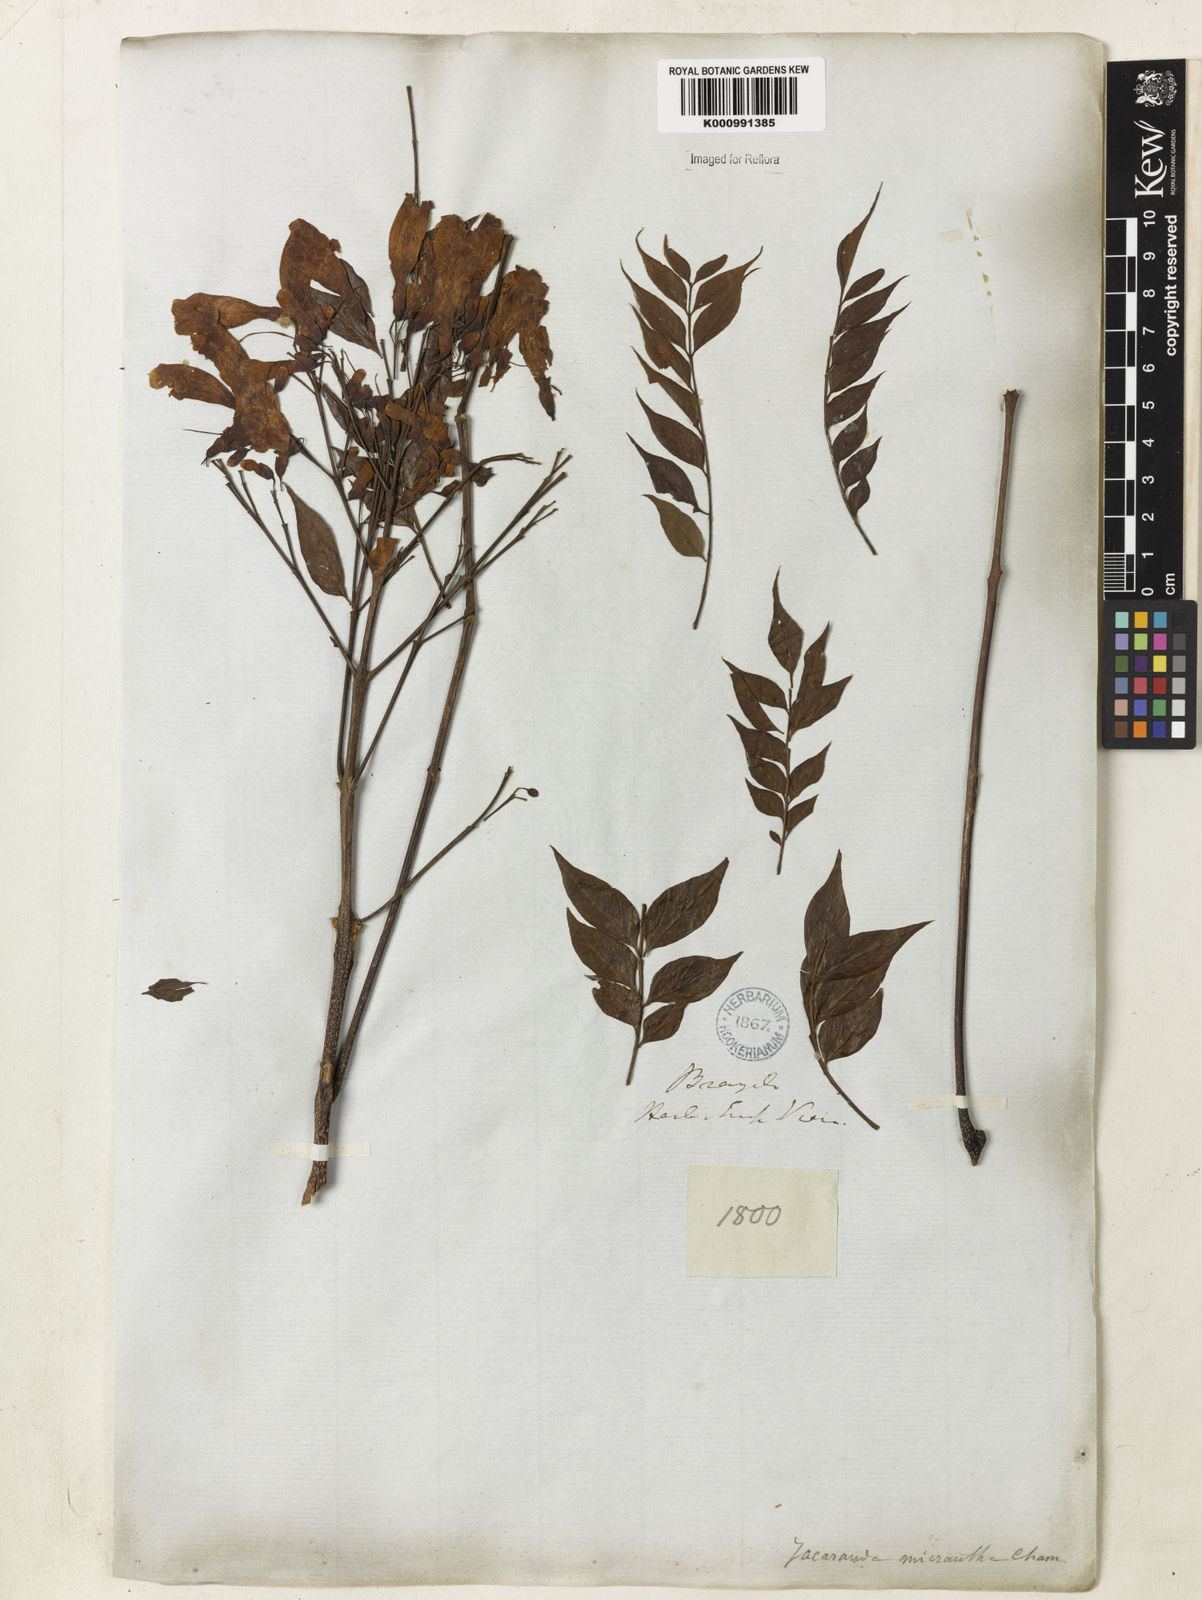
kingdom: Plantae
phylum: Tracheophyta
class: Magnoliopsida
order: Lamiales
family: Bignoniaceae
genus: Jacaranda
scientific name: Jacaranda micrantha
